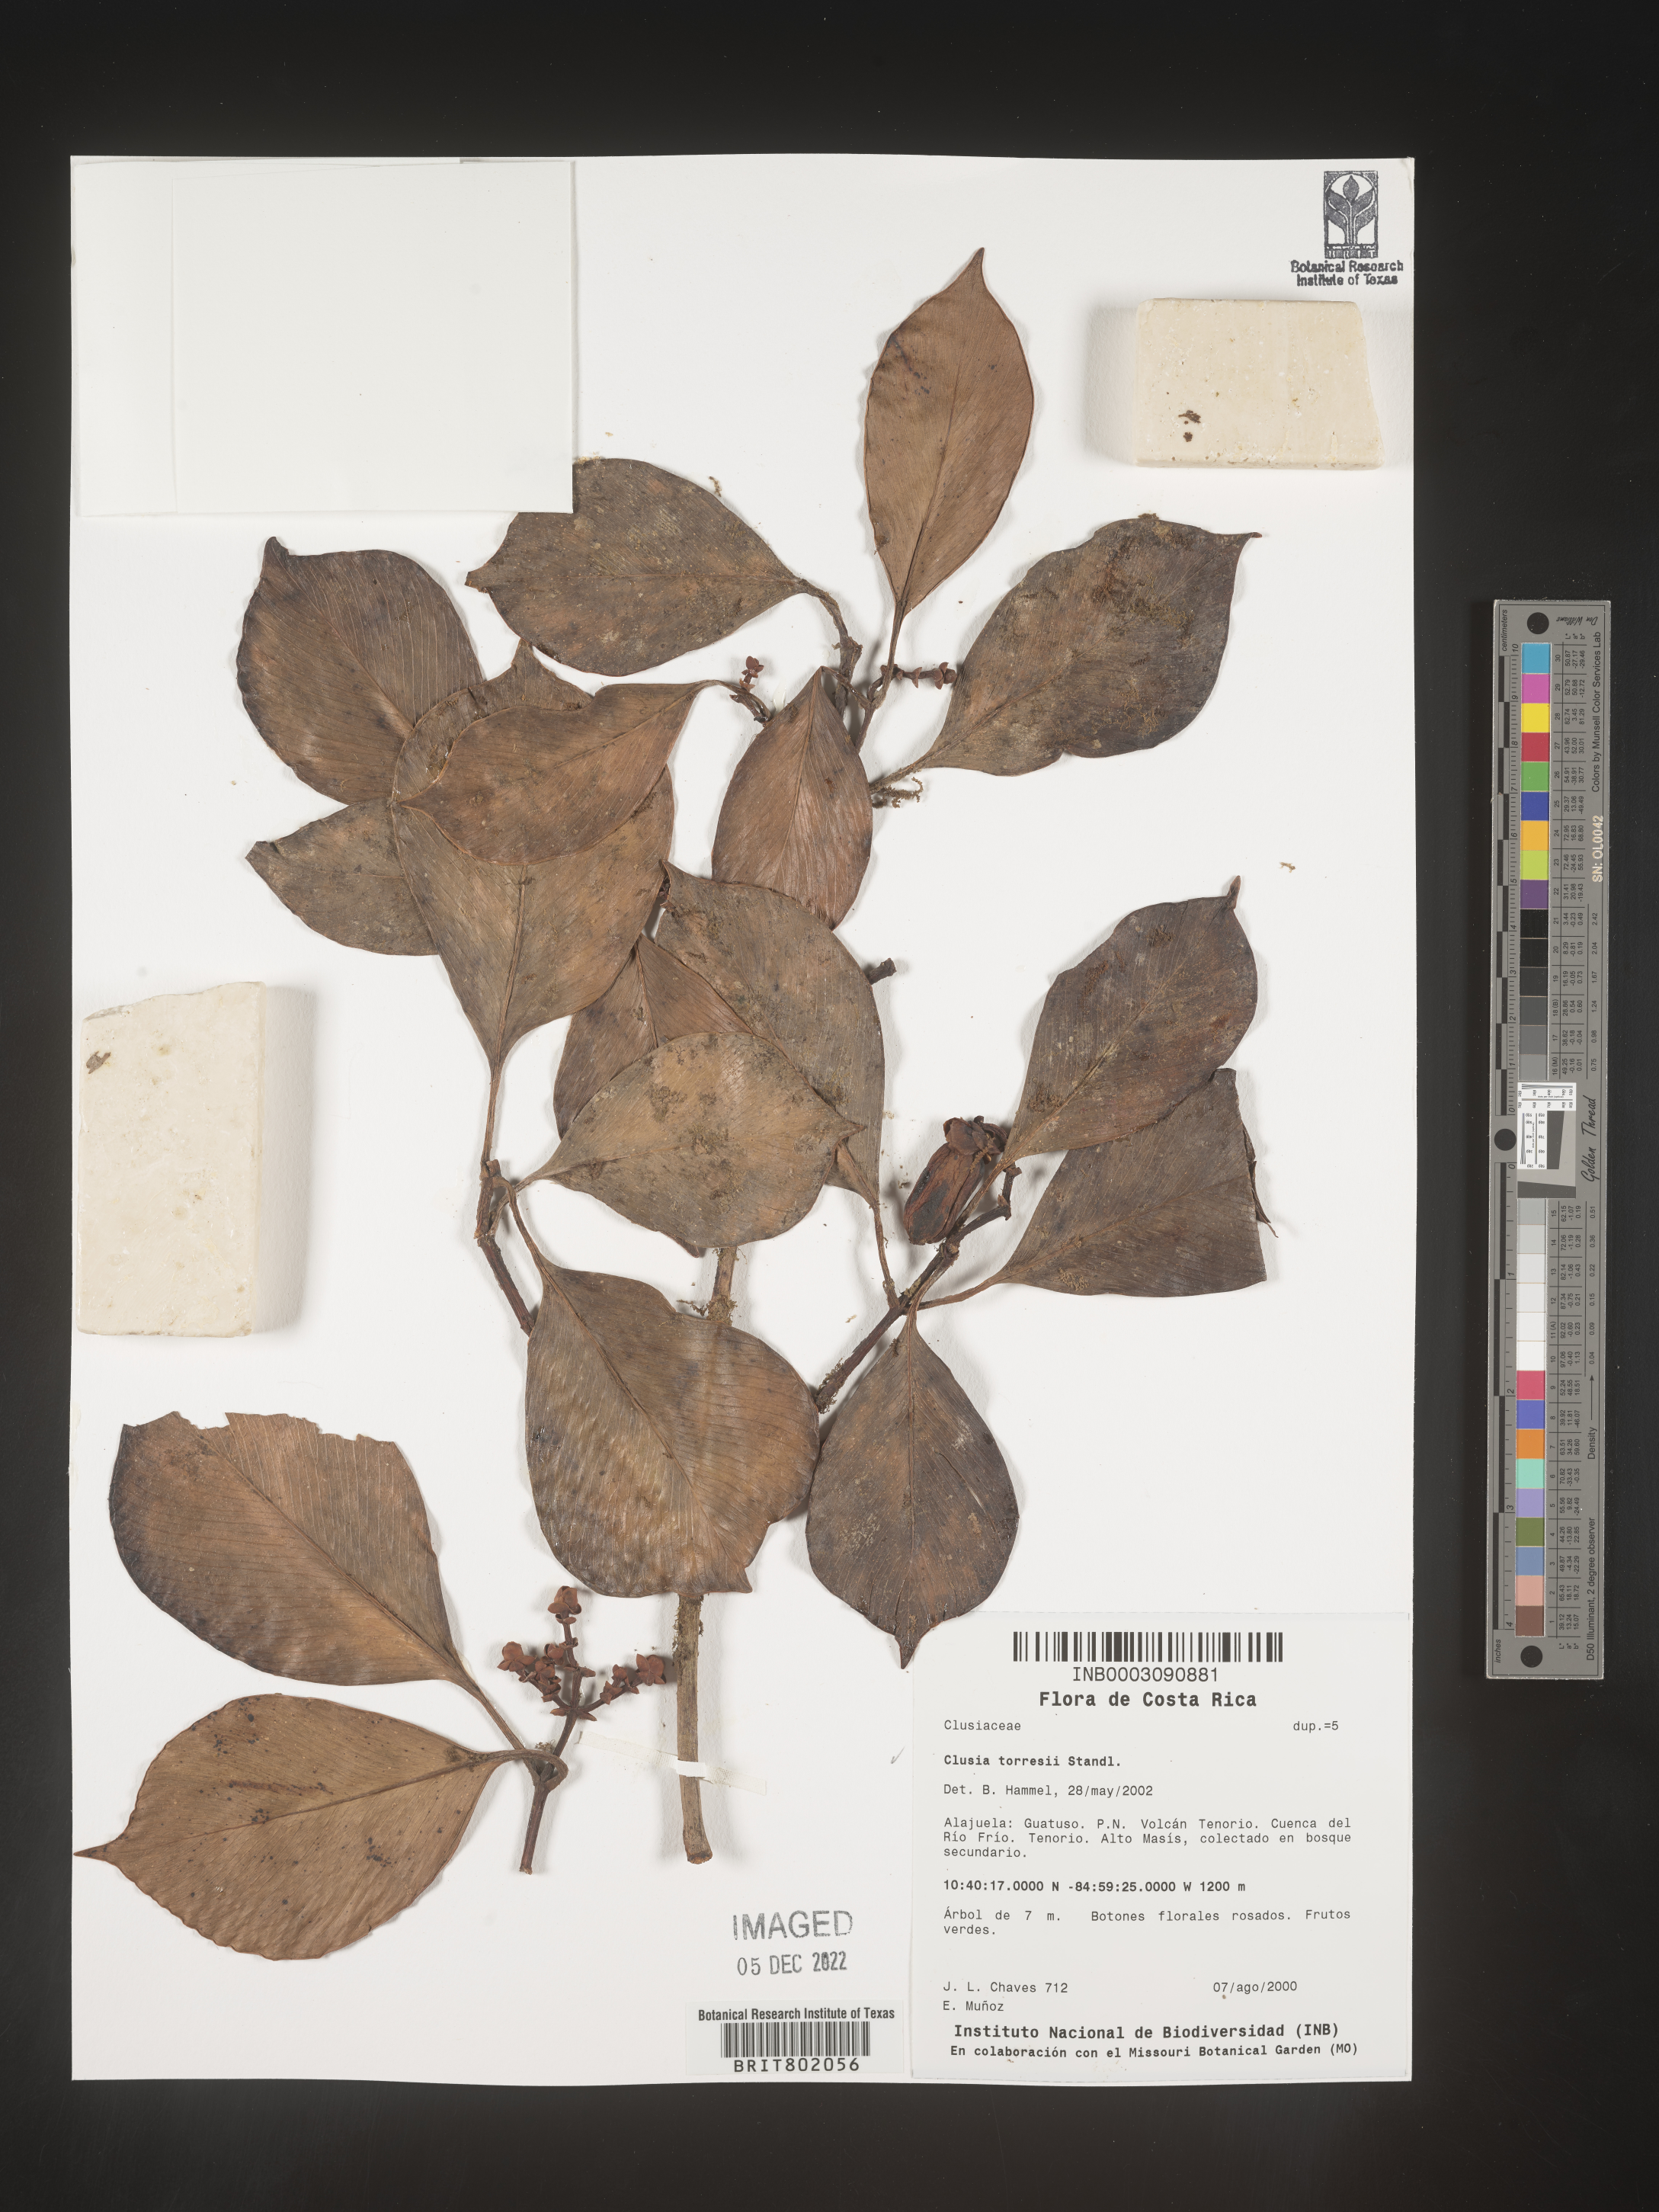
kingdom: Plantae
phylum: Tracheophyta
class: Magnoliopsida
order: Malpighiales
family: Clusiaceae
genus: Clusia
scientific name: Clusia
